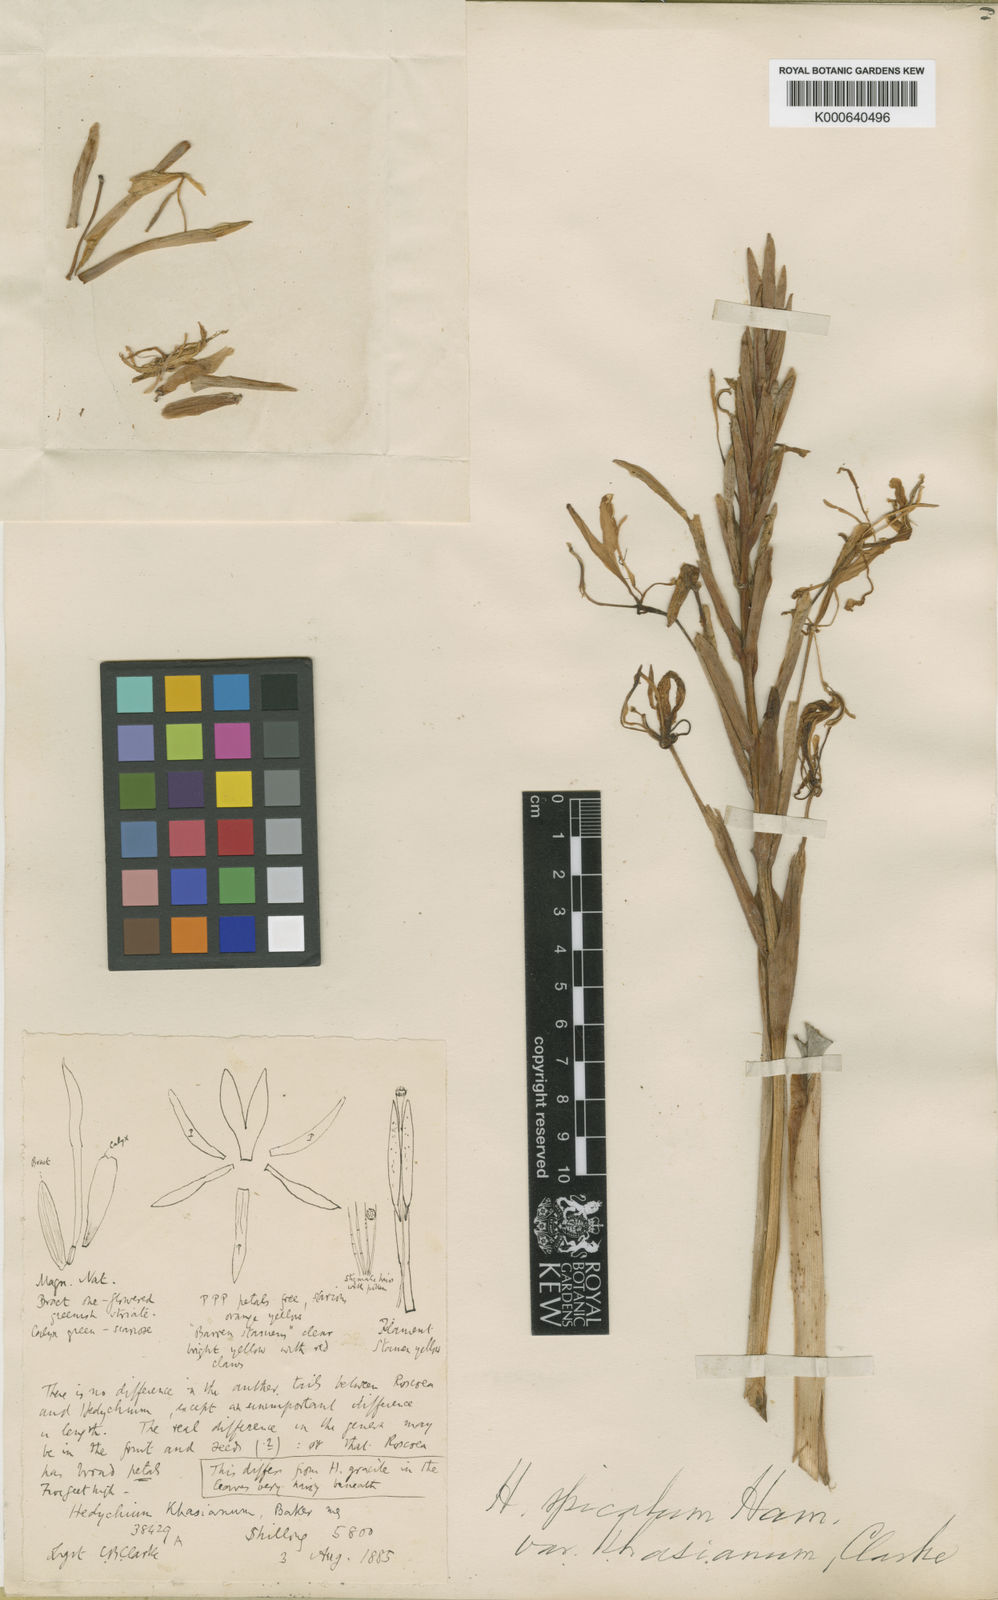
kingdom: Plantae
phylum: Tracheophyta
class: Liliopsida
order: Zingiberales
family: Zingiberaceae
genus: Hedychium
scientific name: Hedychium spicatum
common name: Spiked ginger-lily
